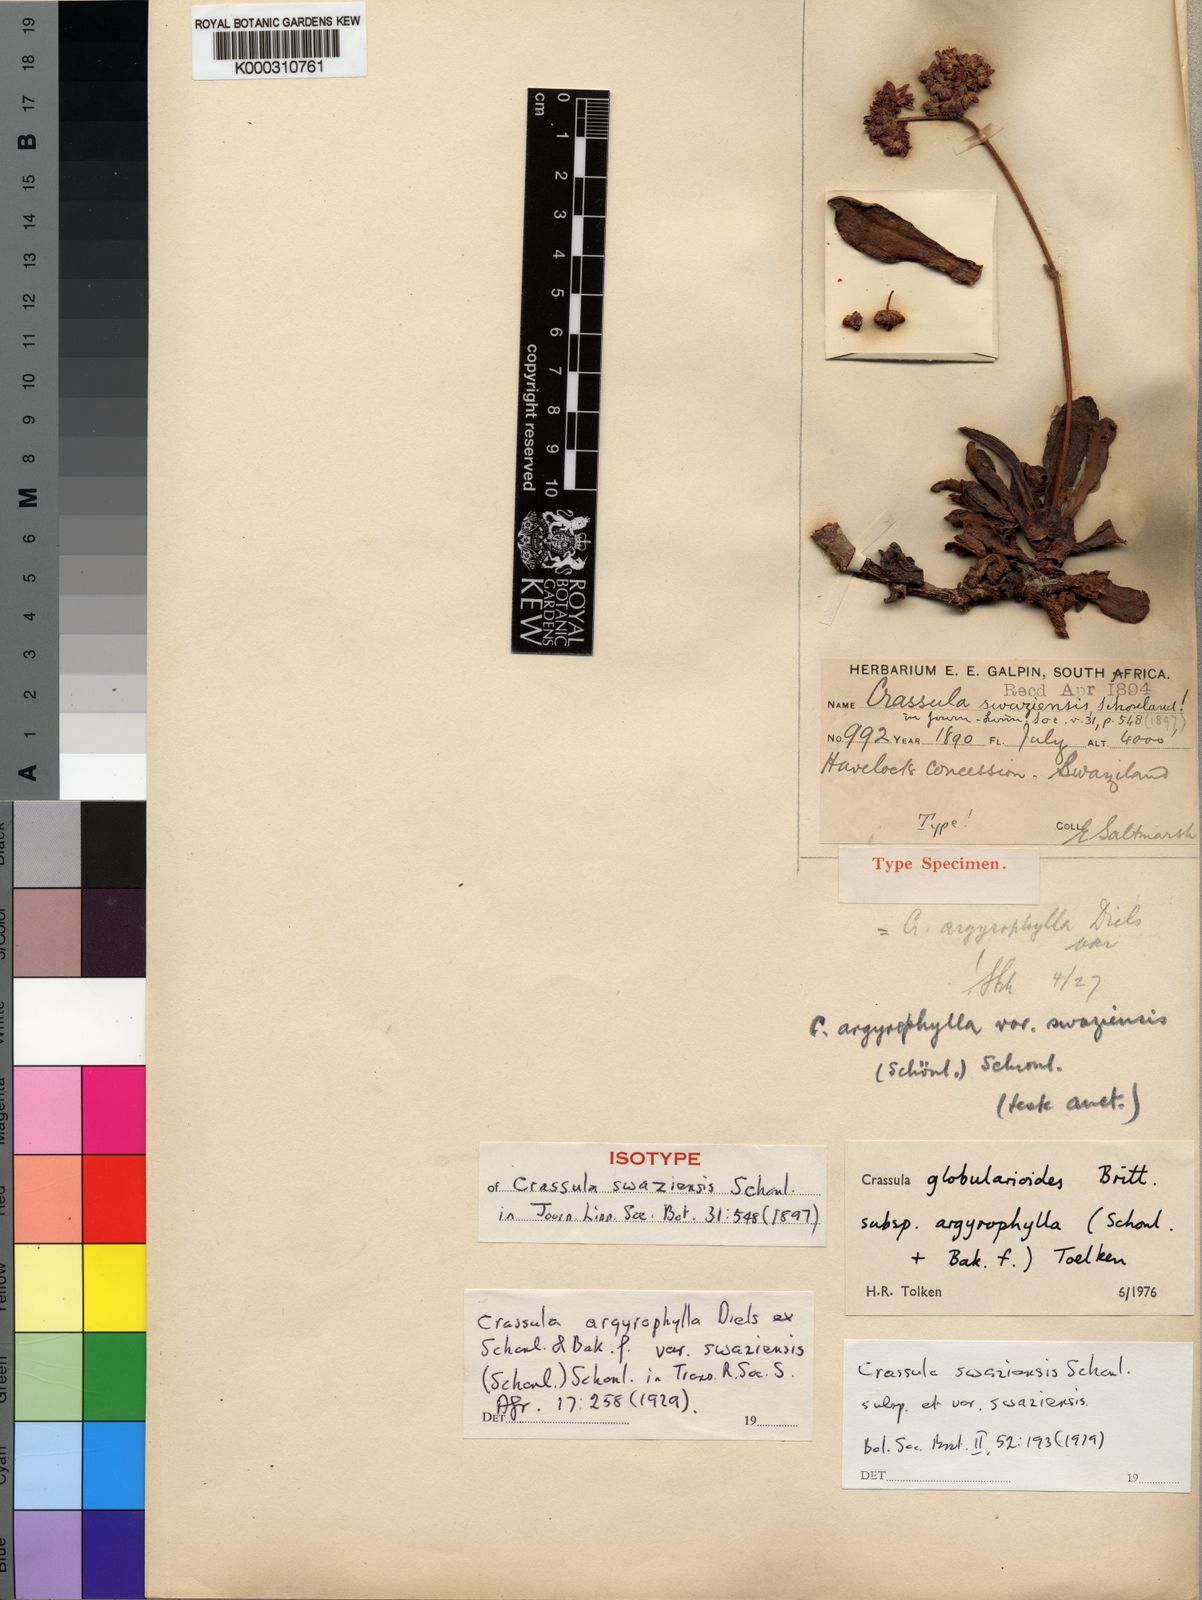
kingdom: Plantae
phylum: Tracheophyta
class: Magnoliopsida
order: Saxifragales
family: Crassulaceae
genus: Crassula
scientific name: Crassula globularioides
